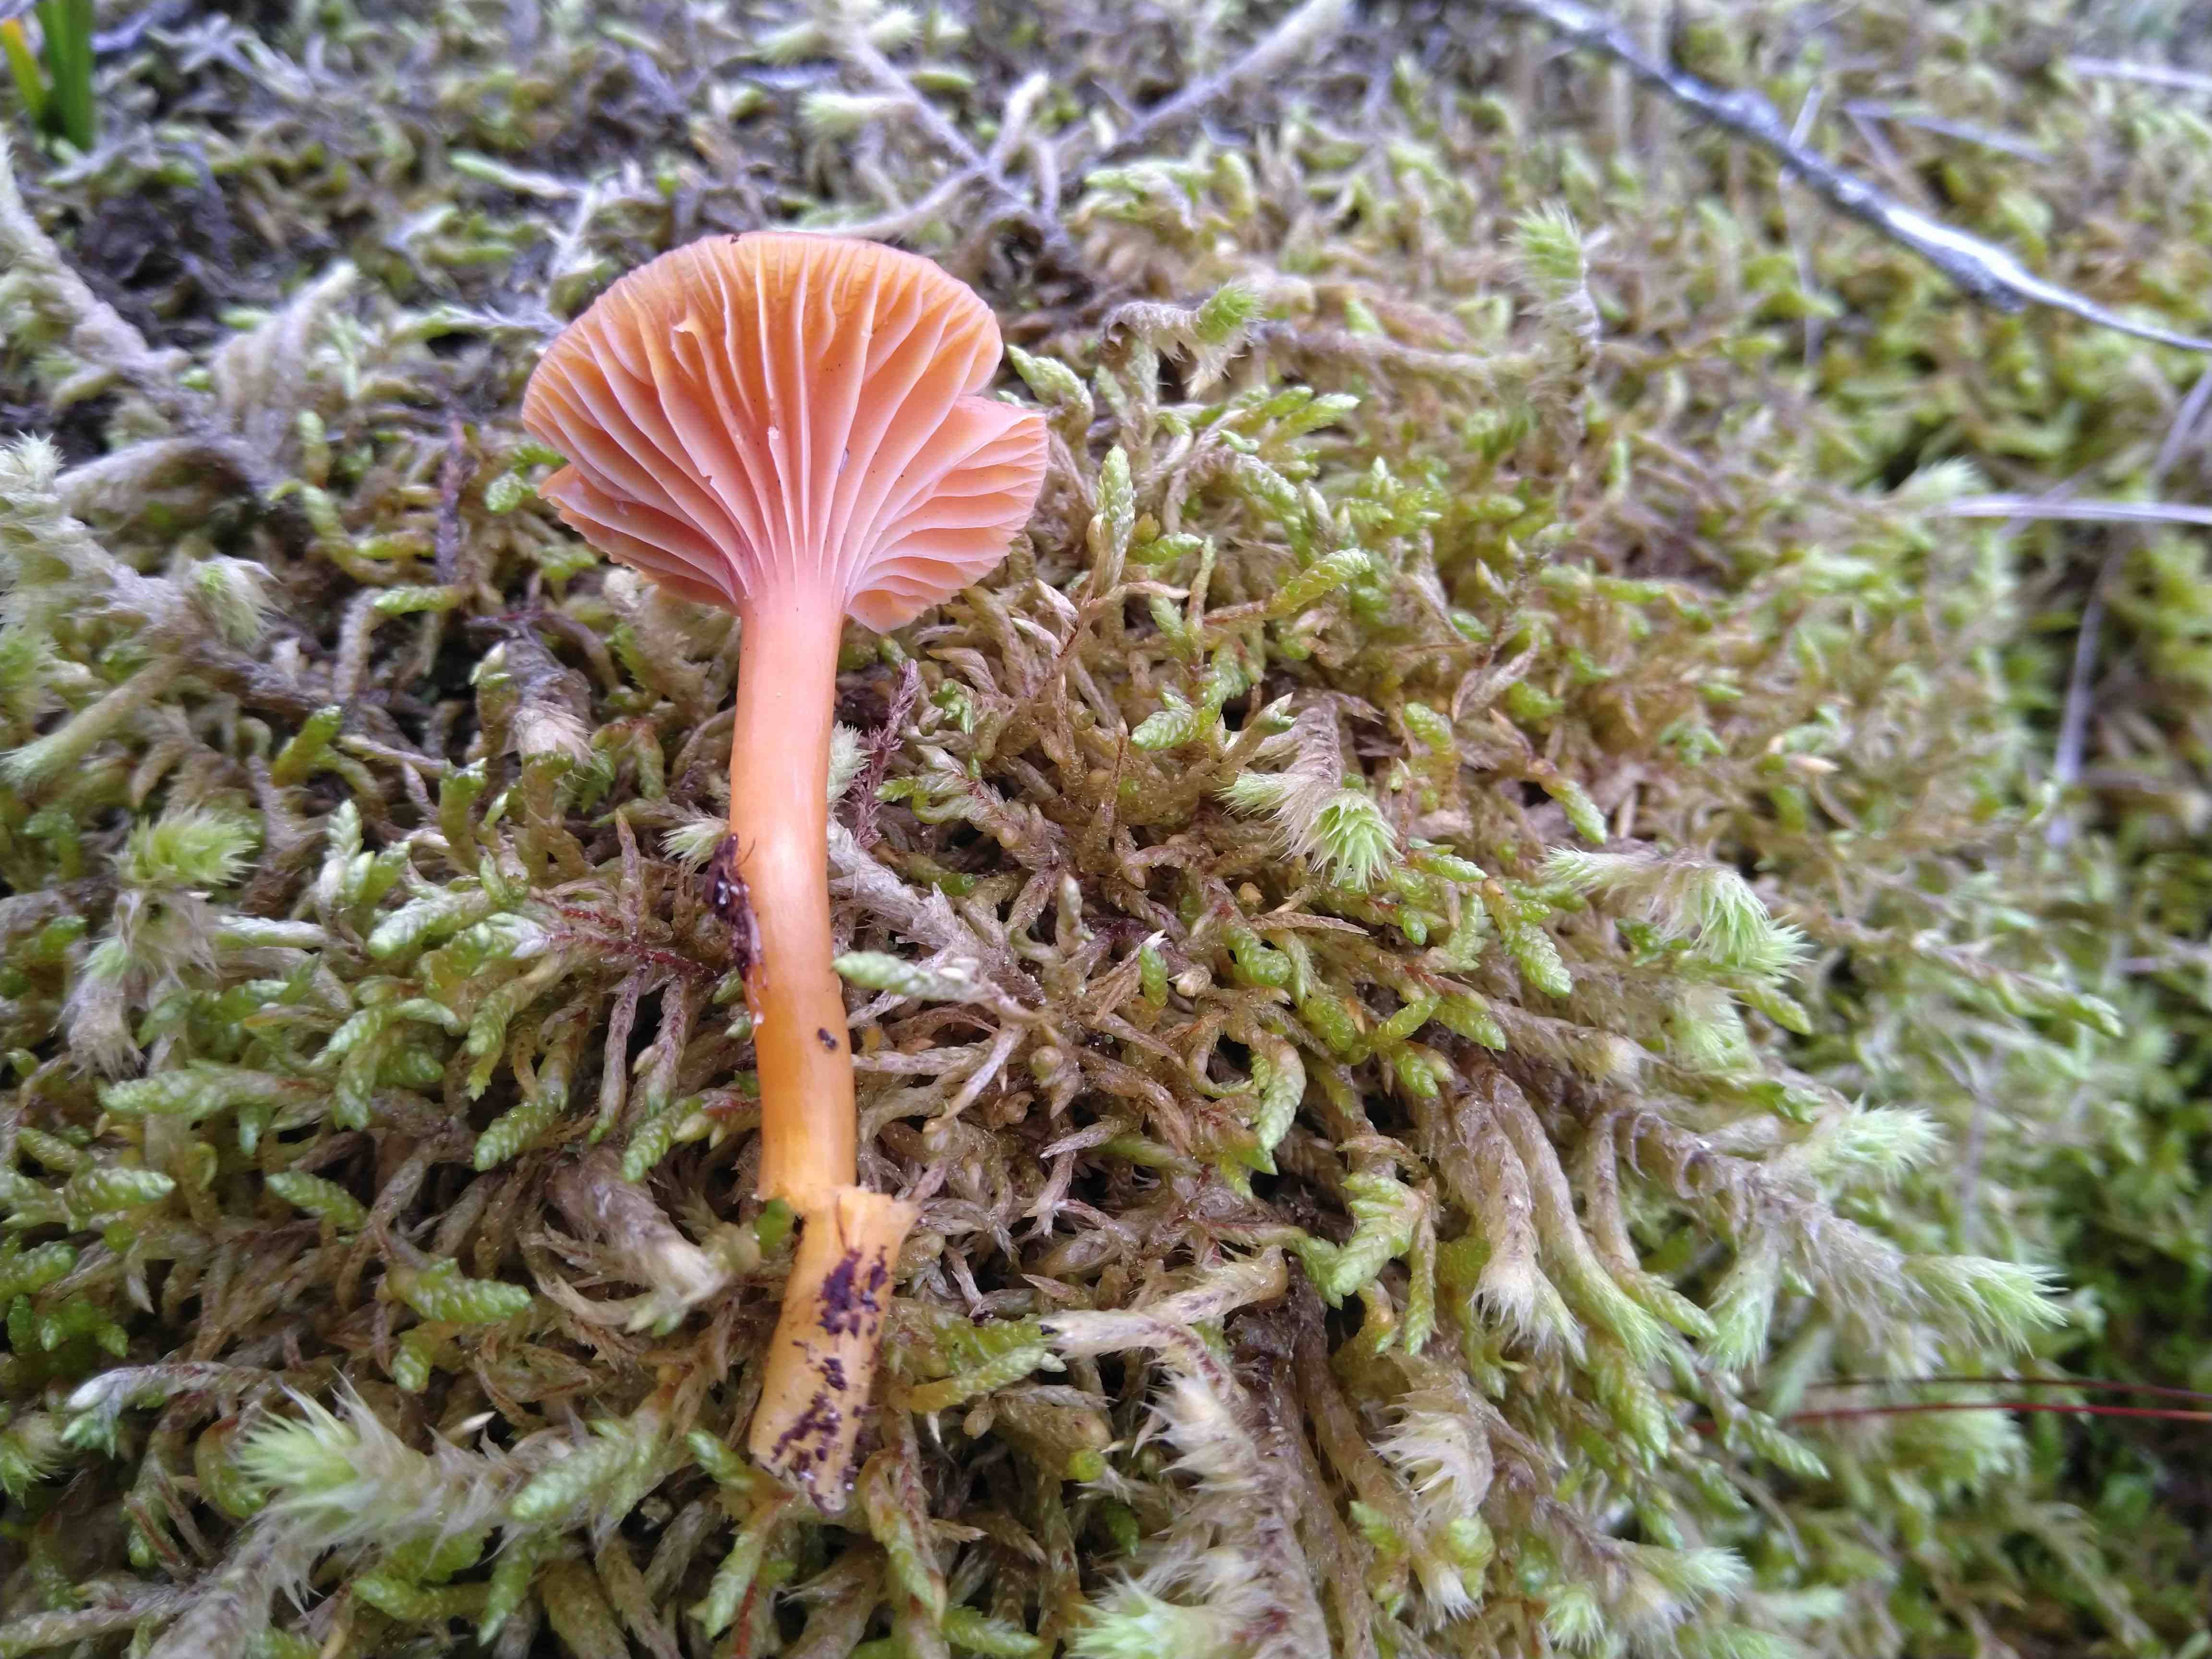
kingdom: Fungi
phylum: Basidiomycota
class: Agaricomycetes
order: Agaricales
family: Hygrophoraceae
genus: Gliophorus
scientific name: Gliophorus laetus
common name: brusk-vokshat
